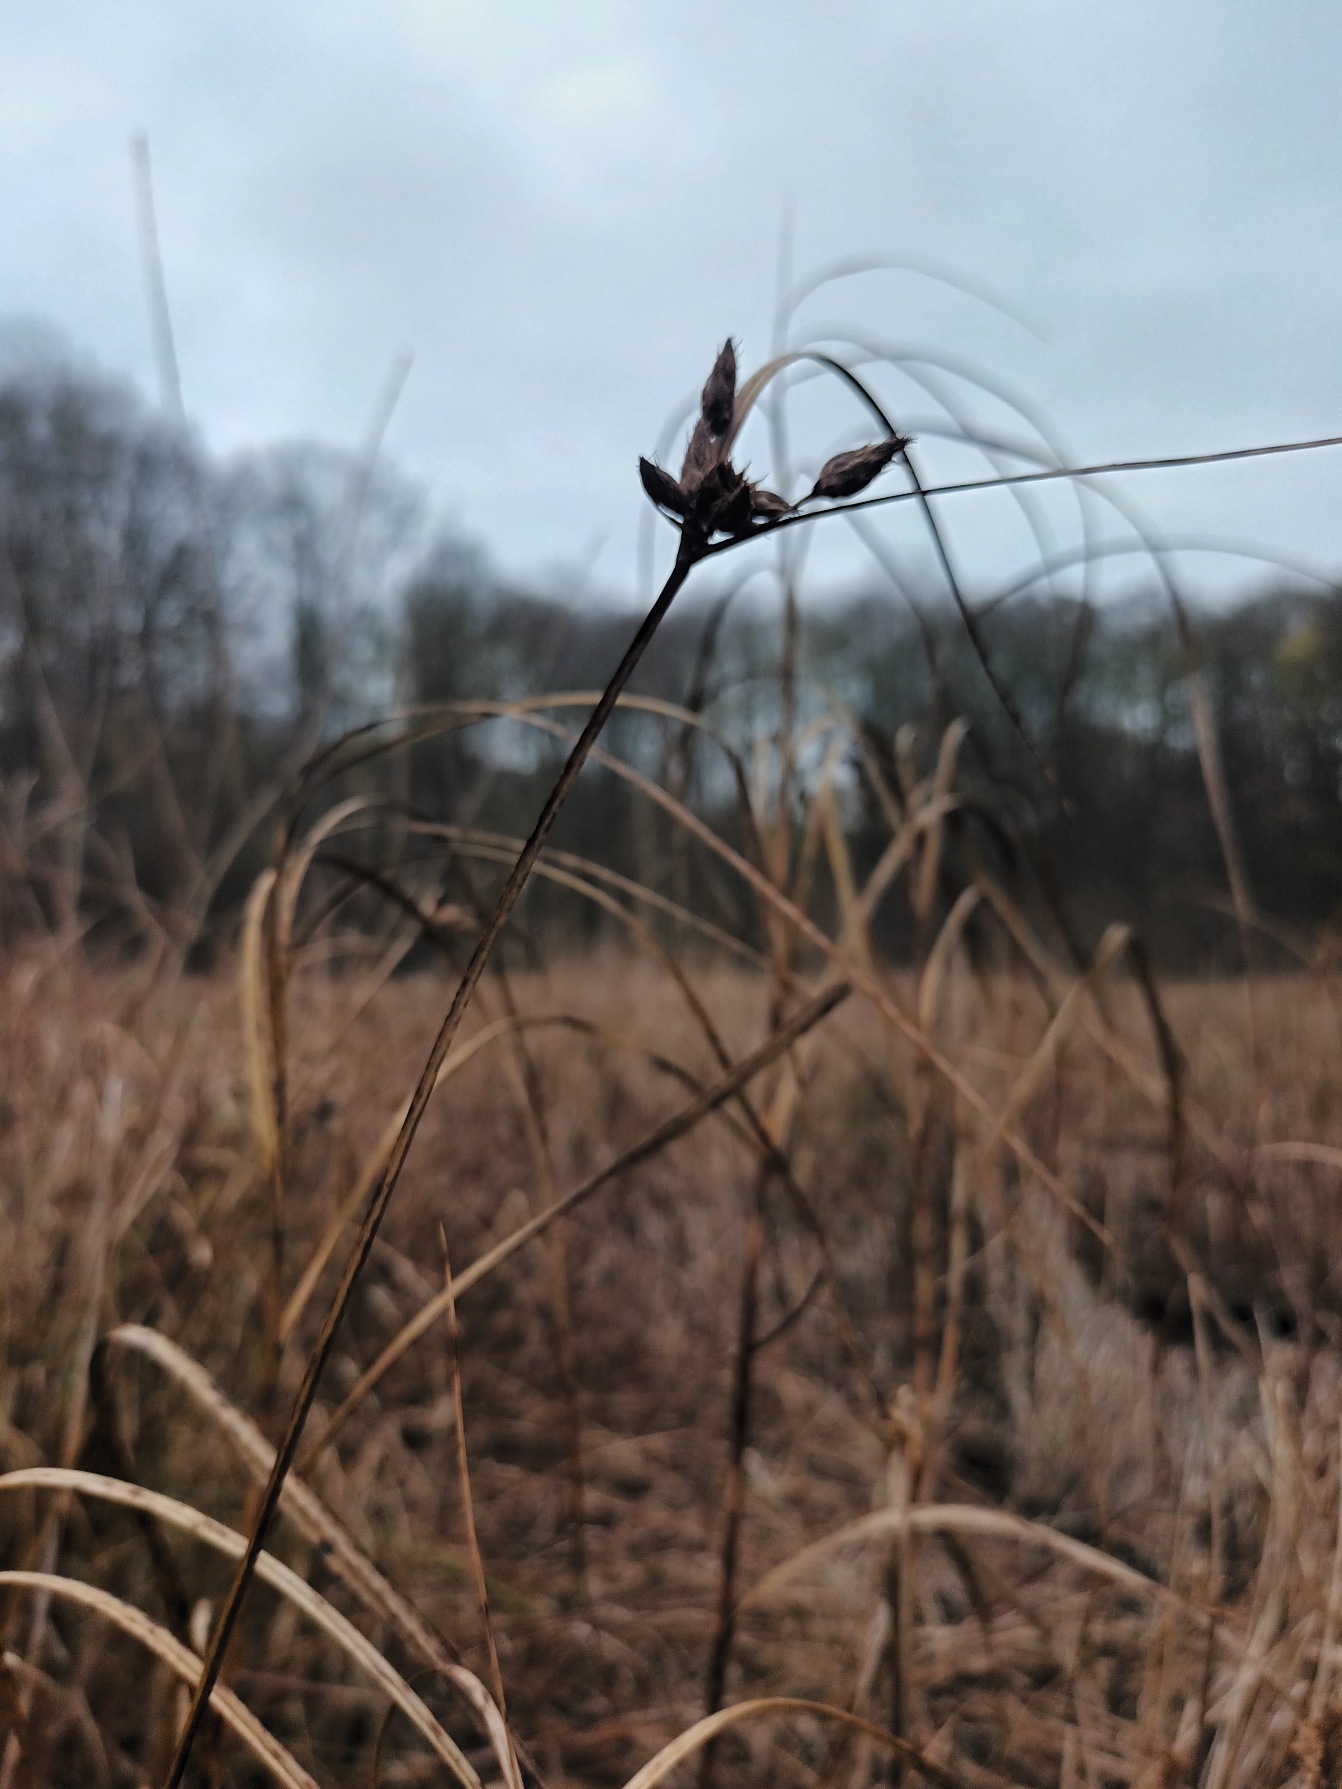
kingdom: Plantae
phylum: Tracheophyta
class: Liliopsida
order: Poales
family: Cyperaceae
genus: Bolboschoenus
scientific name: Bolboschoenus maritimus
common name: Strand-kogleaks
